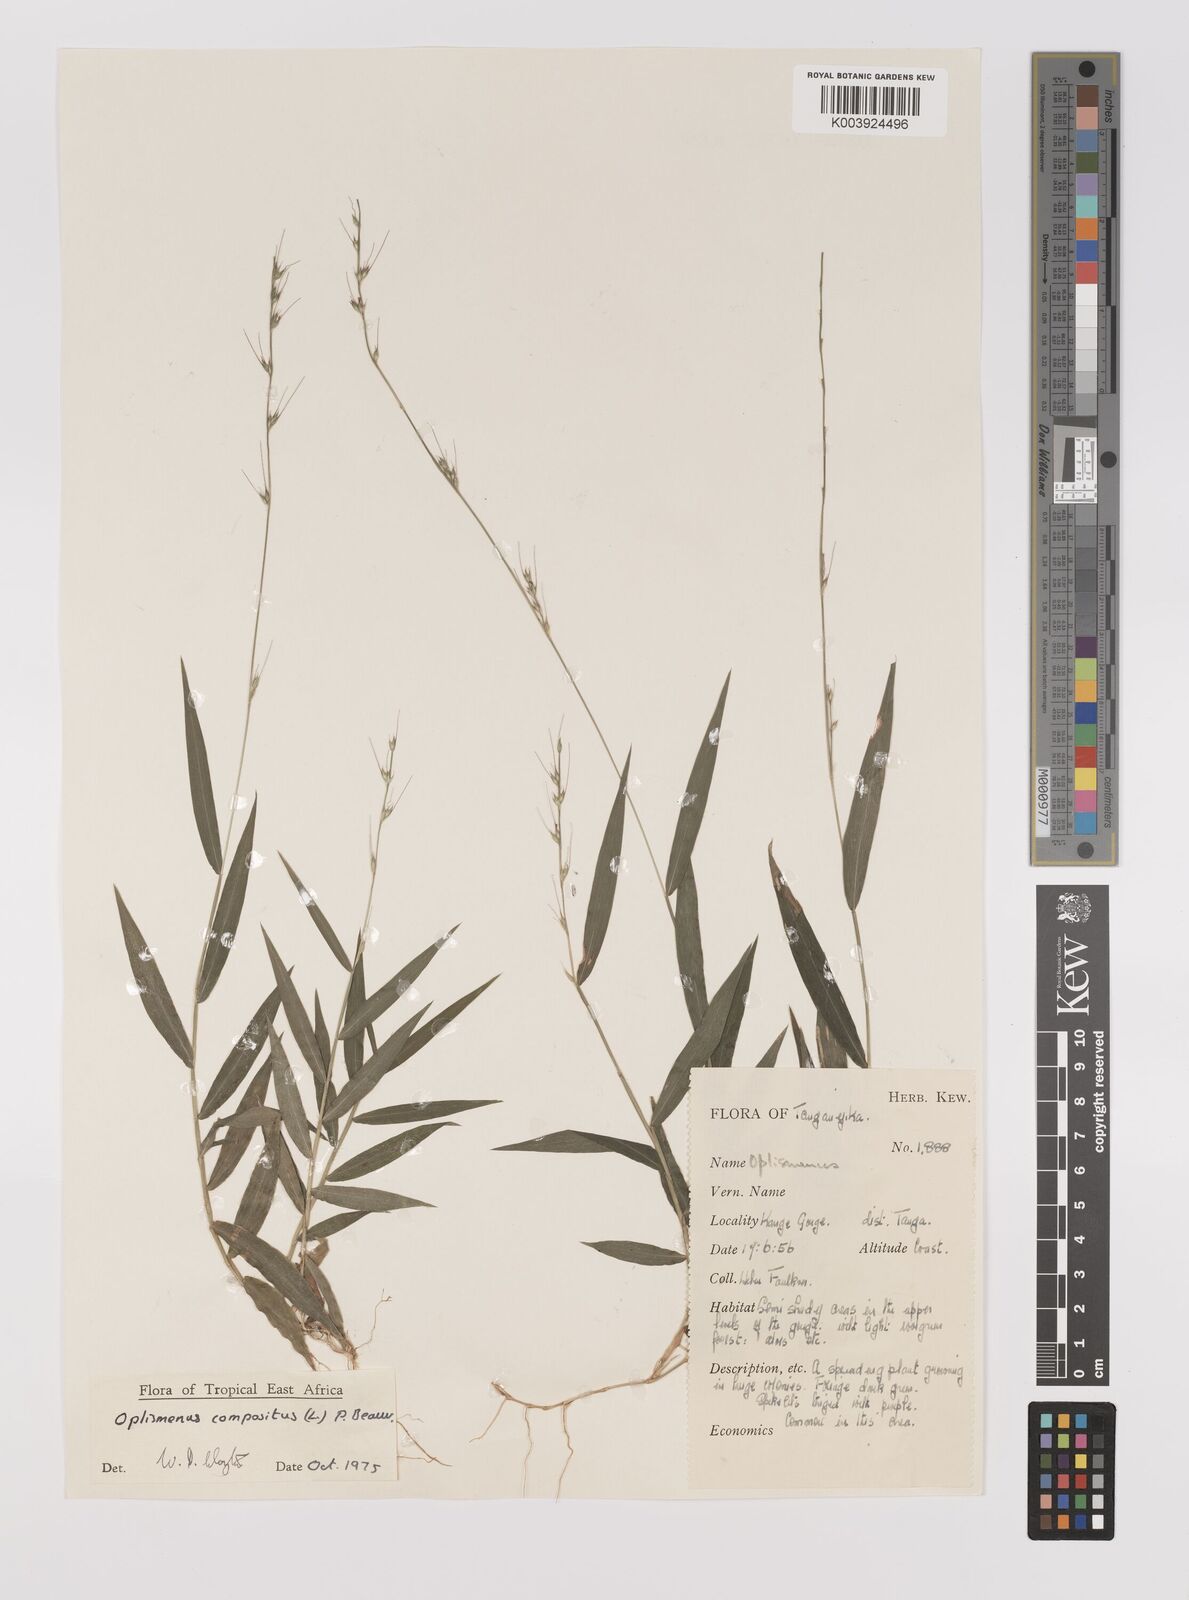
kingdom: Plantae
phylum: Tracheophyta
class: Liliopsida
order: Poales
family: Poaceae
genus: Oplismenus
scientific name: Oplismenus compositus
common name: Running mountain grass
